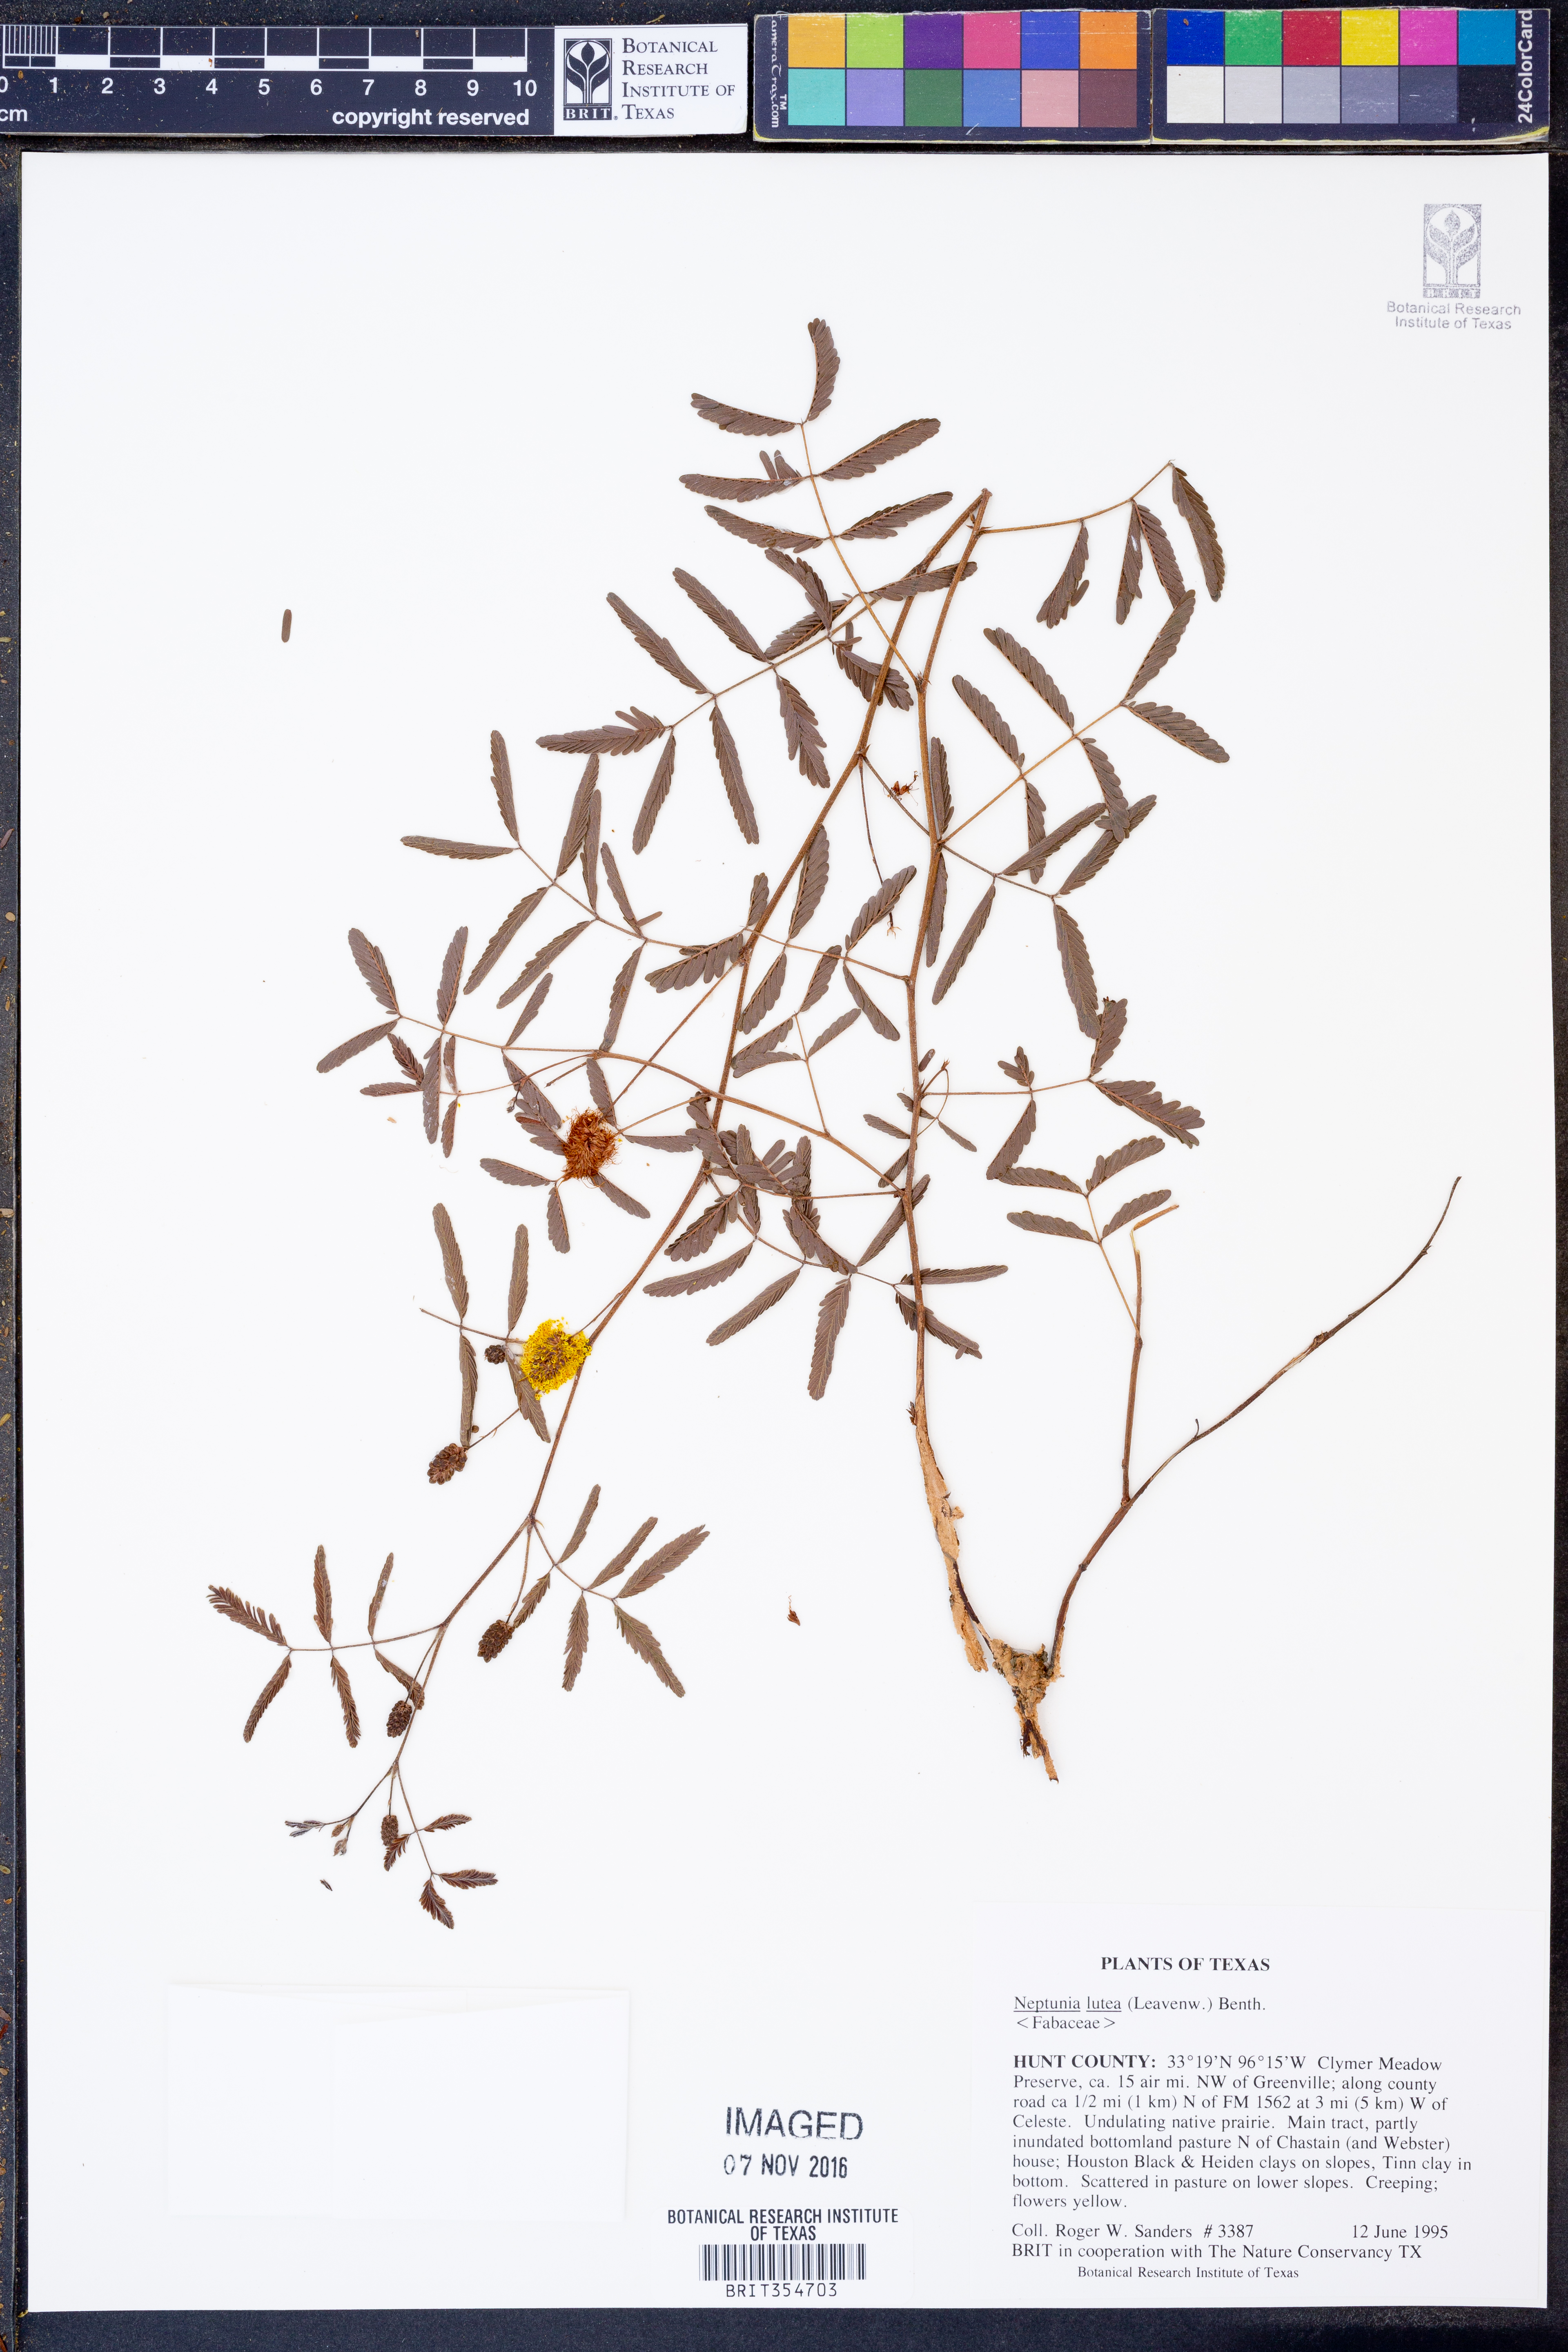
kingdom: Plantae
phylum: Tracheophyta
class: Magnoliopsida
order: Fabales
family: Fabaceae
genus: Neptunia
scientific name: Neptunia lutea
